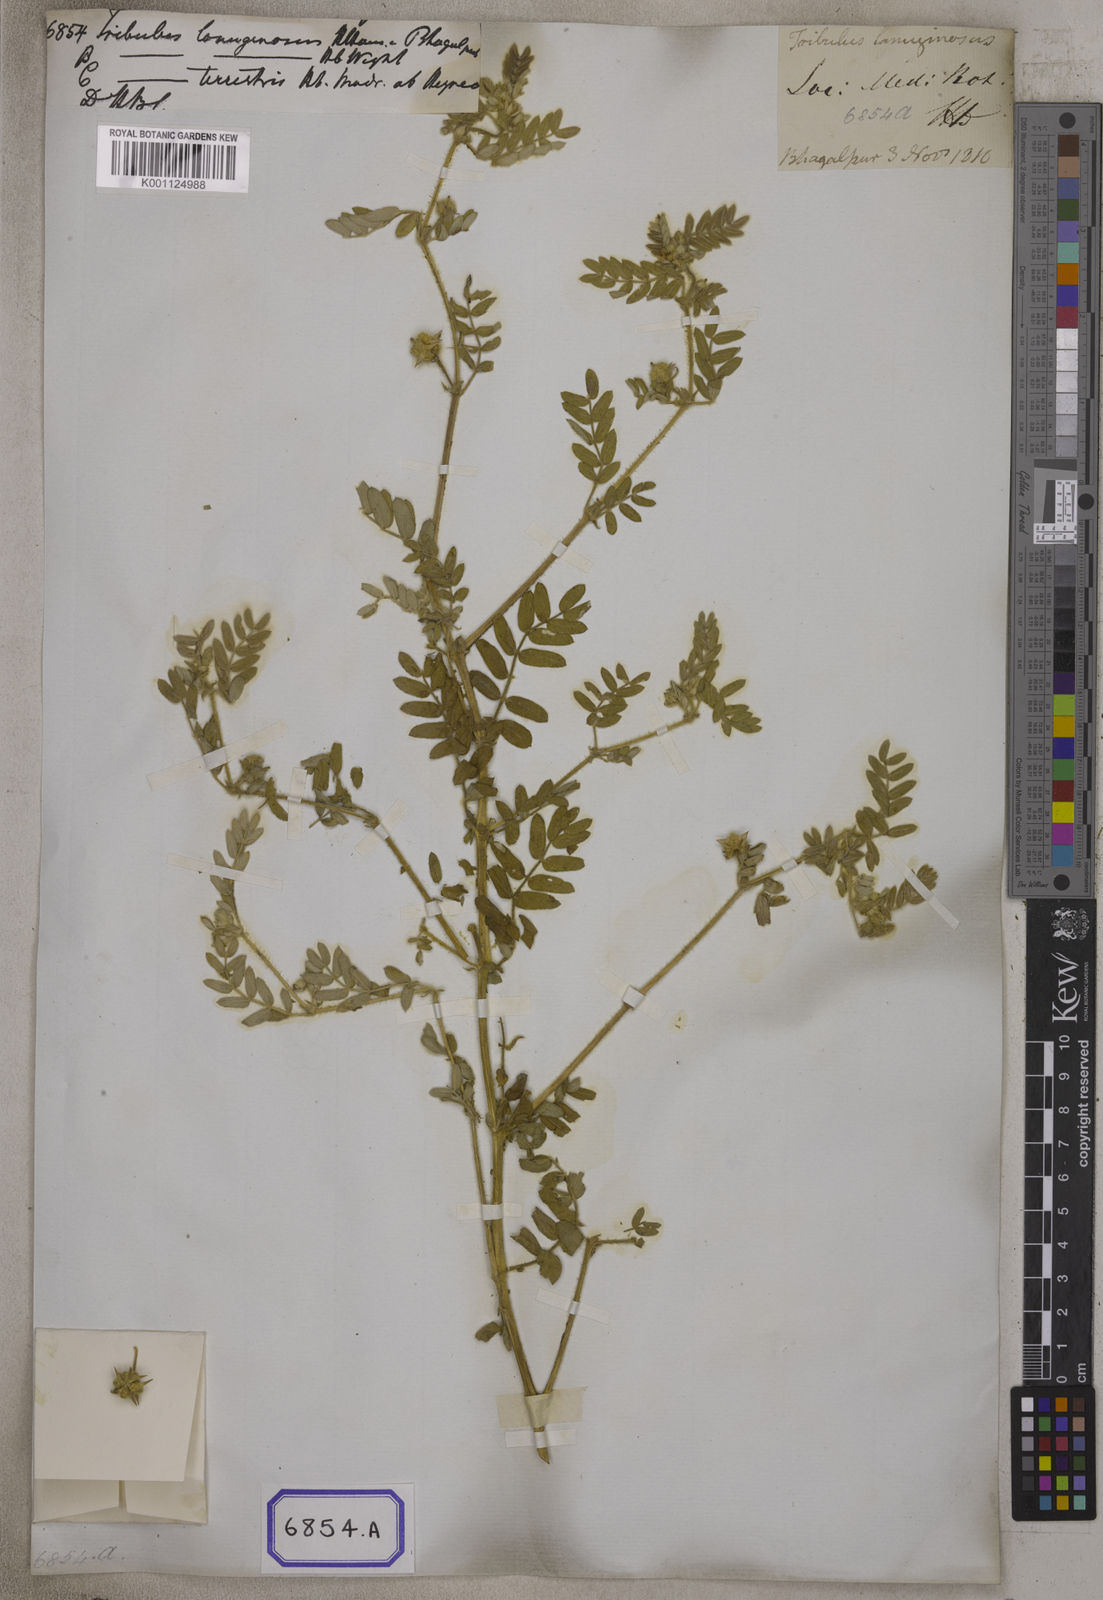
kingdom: Plantae
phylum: Tracheophyta
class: Magnoliopsida
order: Zygophyllales
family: Zygophyllaceae
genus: Tribulus
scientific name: Tribulus terrestris
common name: Puncturevine
